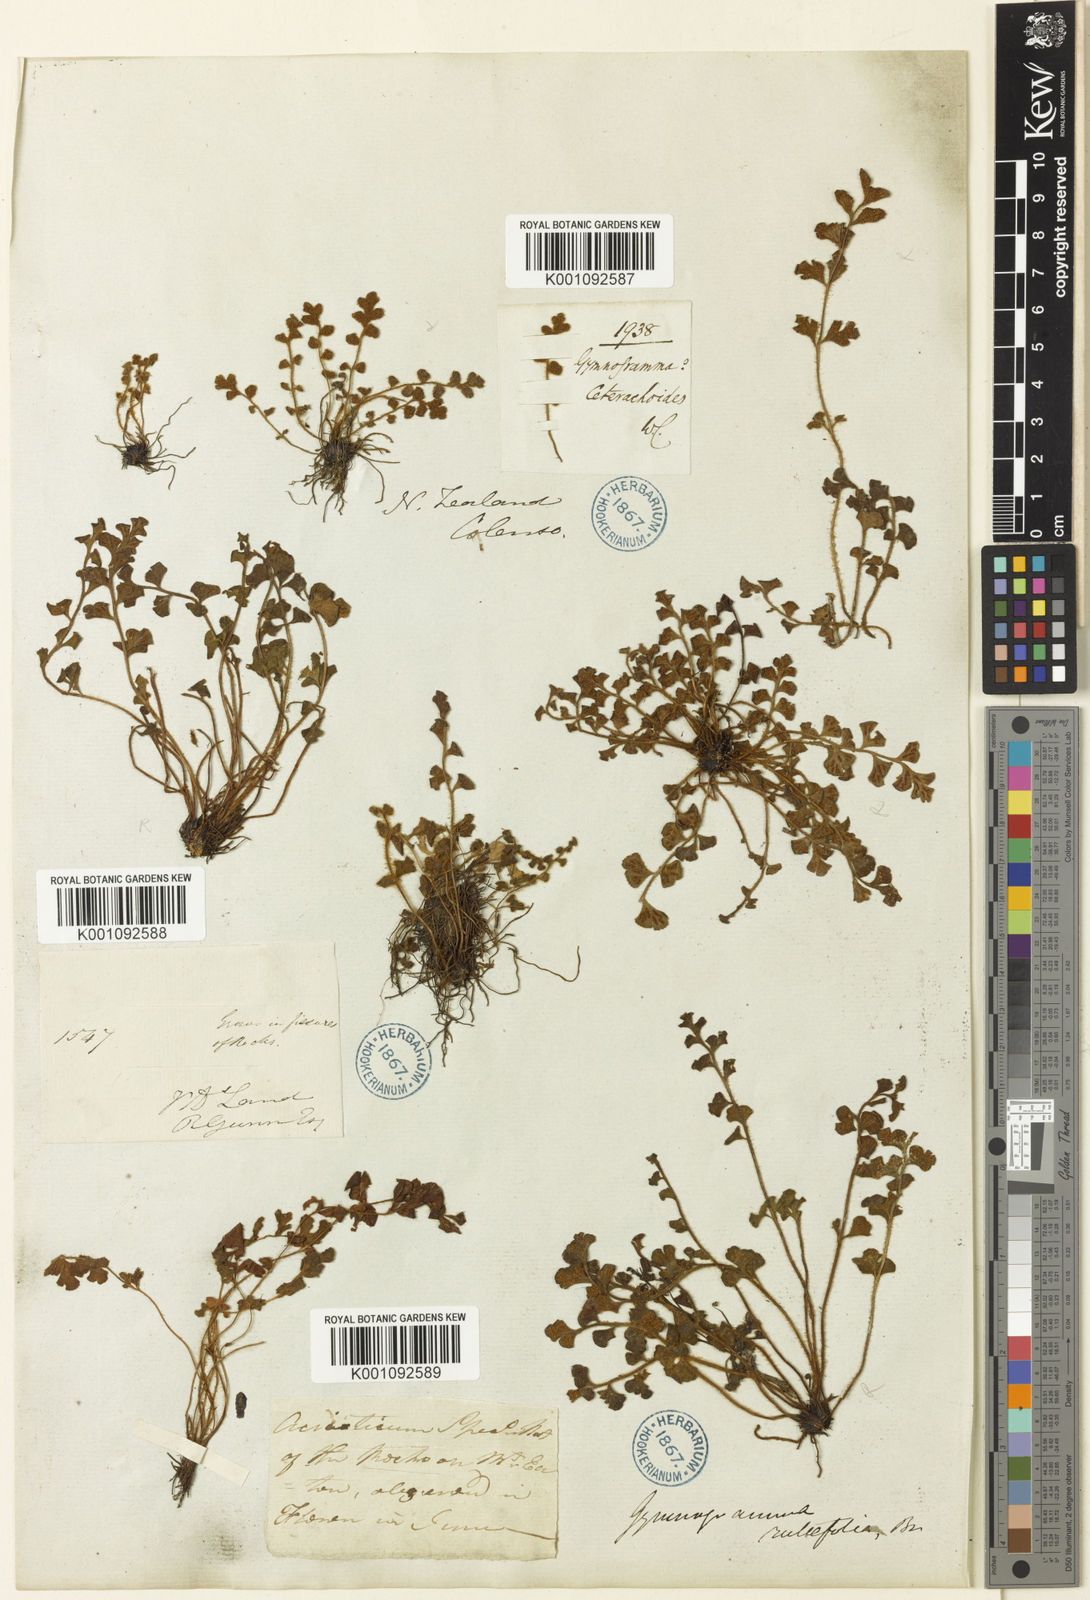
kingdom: Plantae
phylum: Tracheophyta
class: Polypodiopsida
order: Polypodiales
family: Aspleniaceae
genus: Asplenium
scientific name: Asplenium
